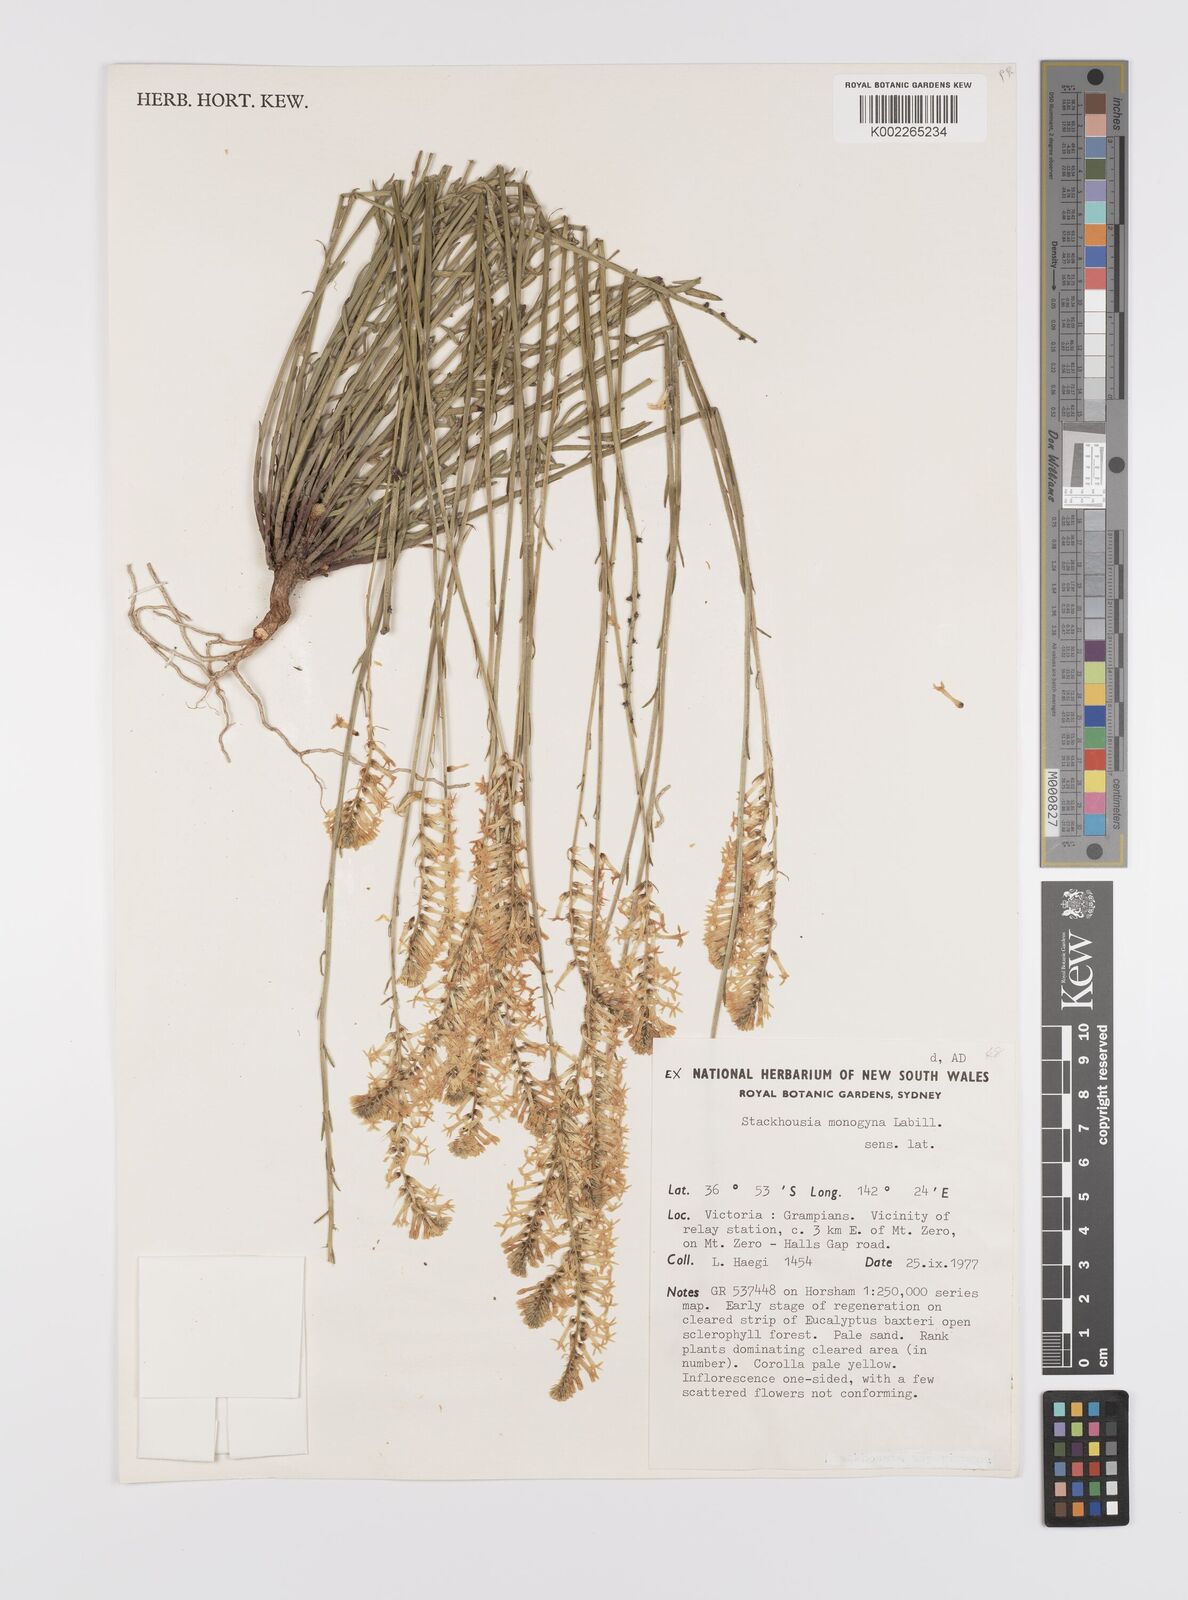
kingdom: Plantae
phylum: Tracheophyta
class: Magnoliopsida
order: Celastrales
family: Celastraceae
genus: Stackhousia
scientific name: Stackhousia monogyna
